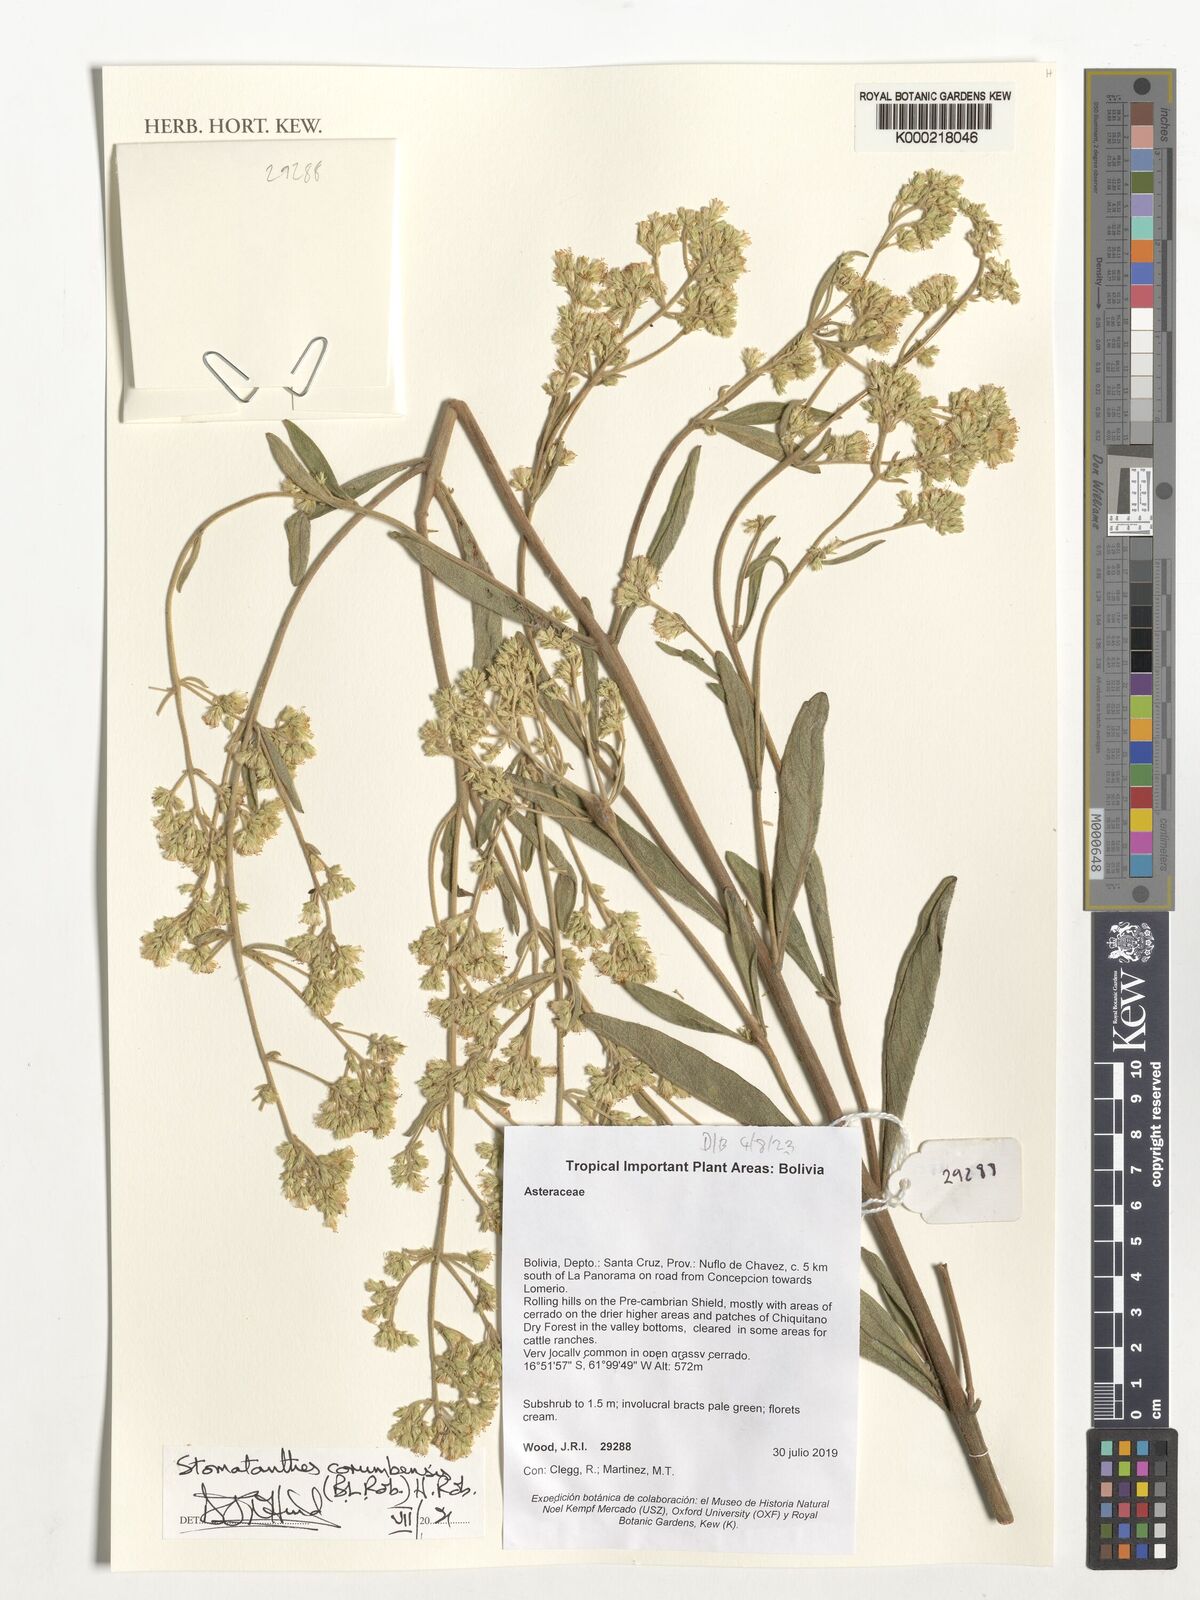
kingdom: Plantae
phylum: Tracheophyta
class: Magnoliopsida
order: Asterales
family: Asteraceae
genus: Stomatanthes
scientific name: Stomatanthes corumbensis
